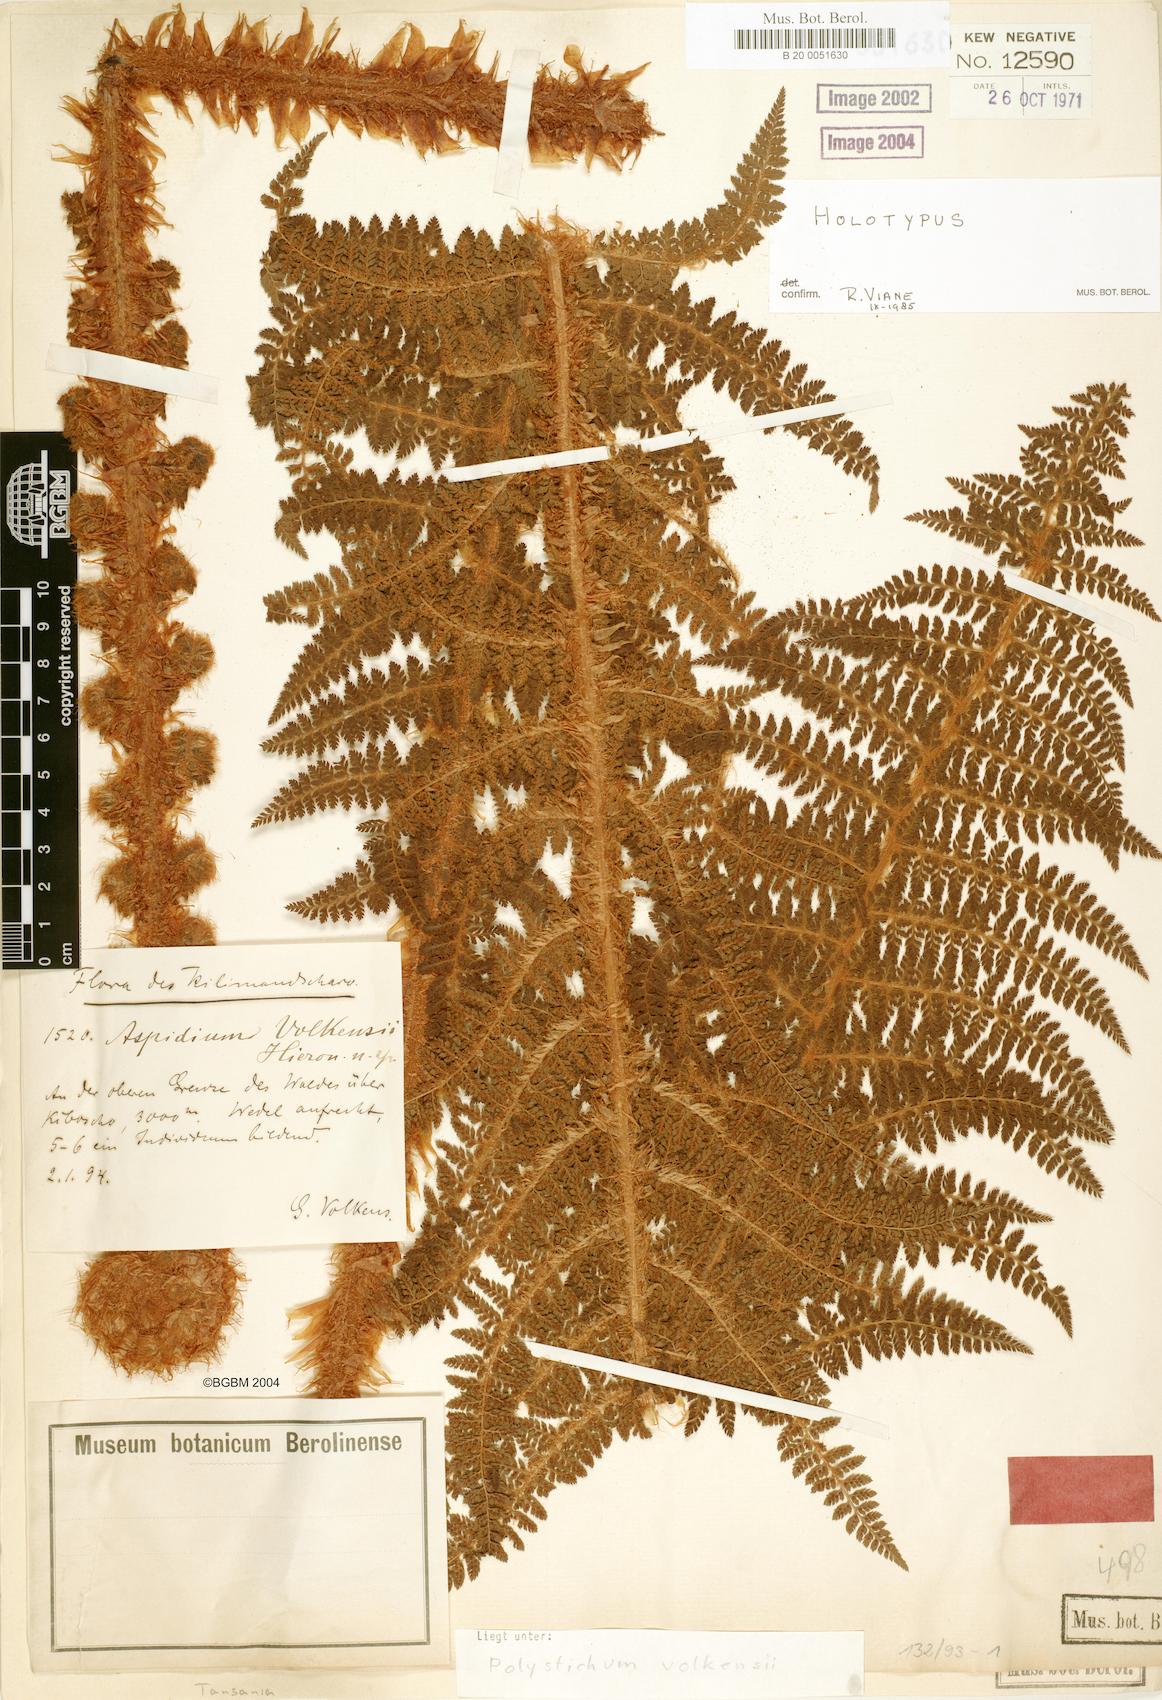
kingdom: Plantae
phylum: Tracheophyta
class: Polypodiopsida
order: Polypodiales
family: Dryopteridaceae
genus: Polystichum
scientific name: Polystichum volkensii
